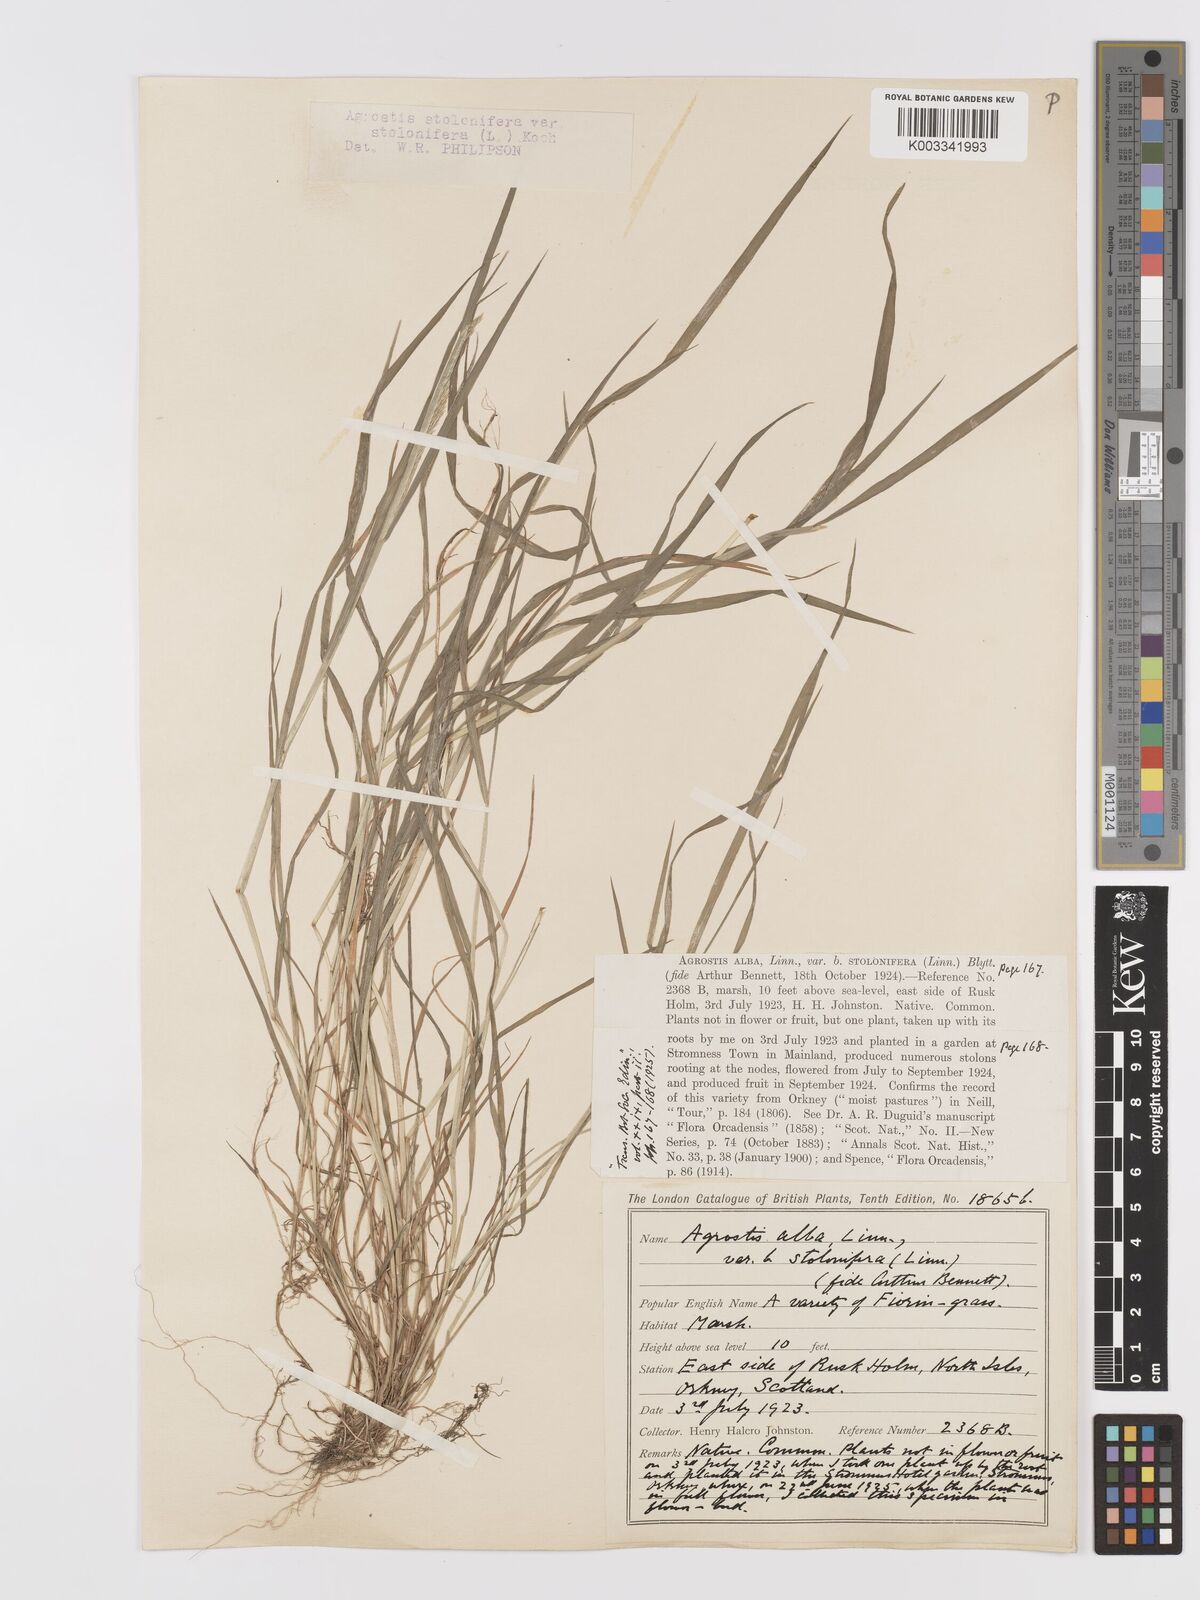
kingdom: Plantae
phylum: Tracheophyta
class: Liliopsida
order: Poales
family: Poaceae
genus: Agrostis
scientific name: Agrostis stolonifera
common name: Creeping bentgrass
